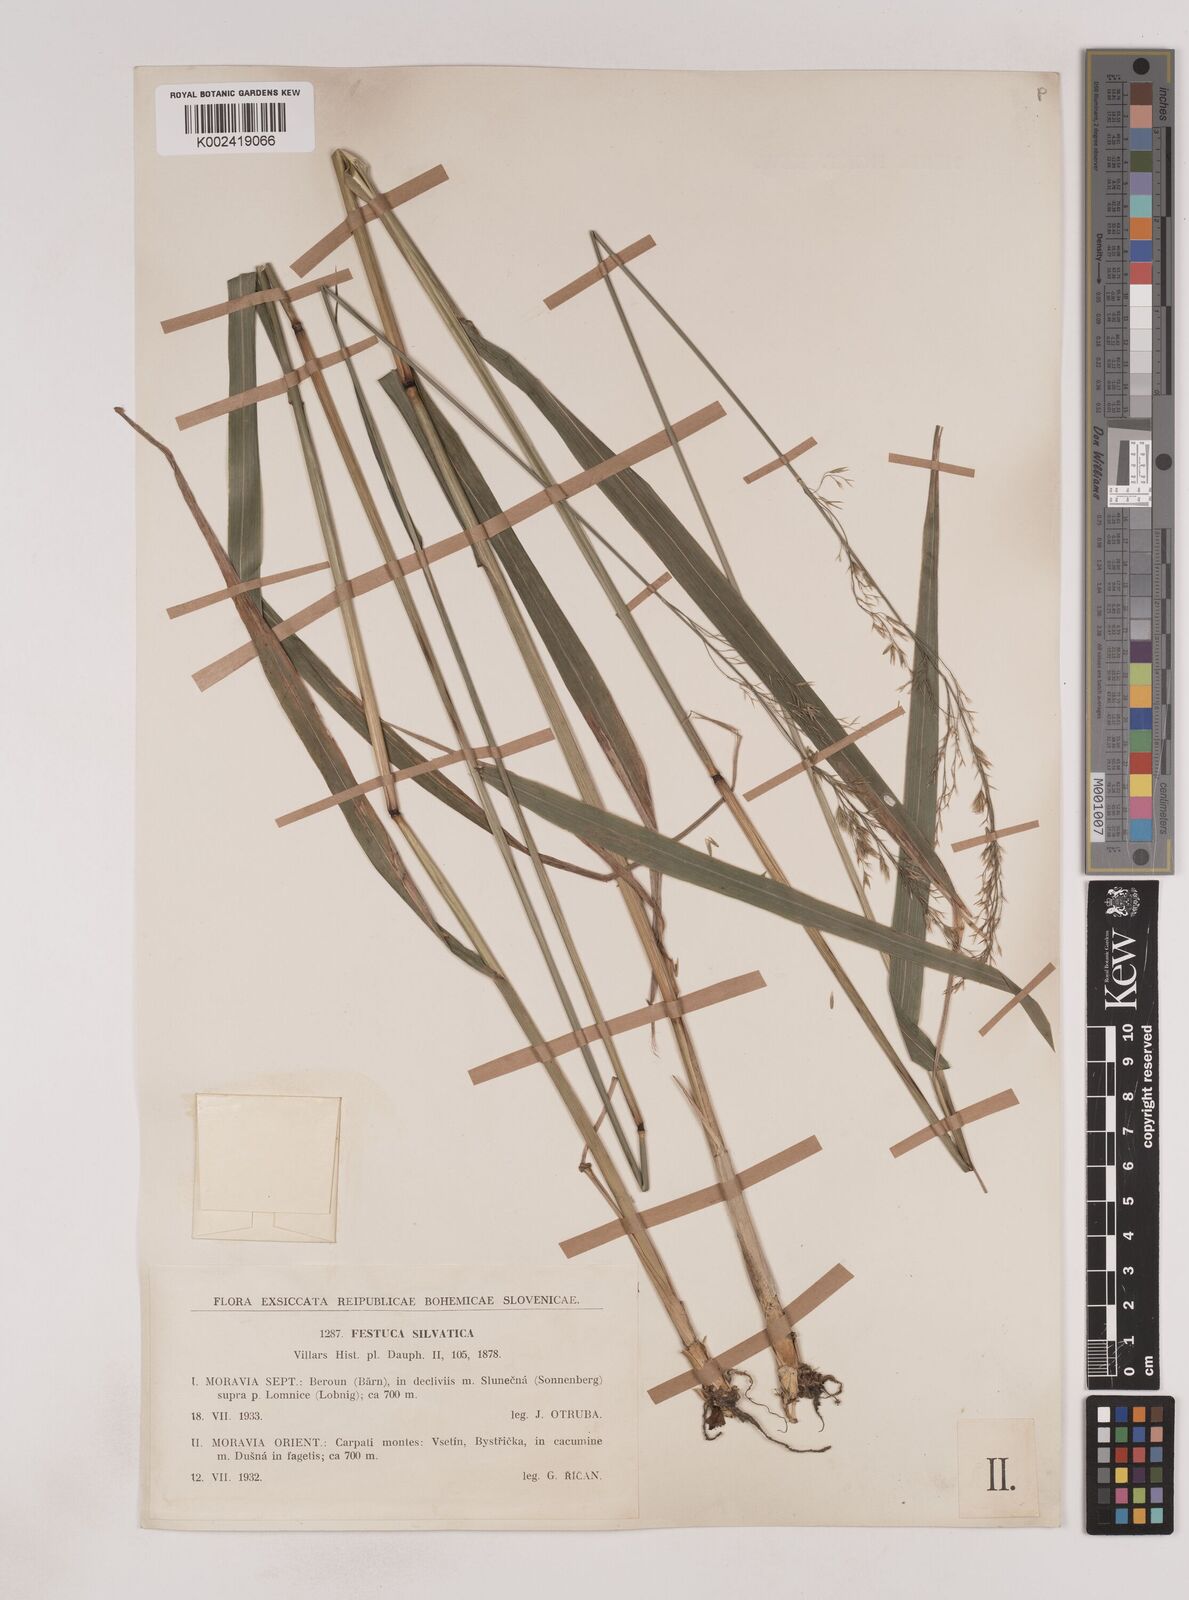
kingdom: Plantae
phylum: Tracheophyta
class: Liliopsida
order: Poales
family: Poaceae
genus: Festuca
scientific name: Festuca drymeja
